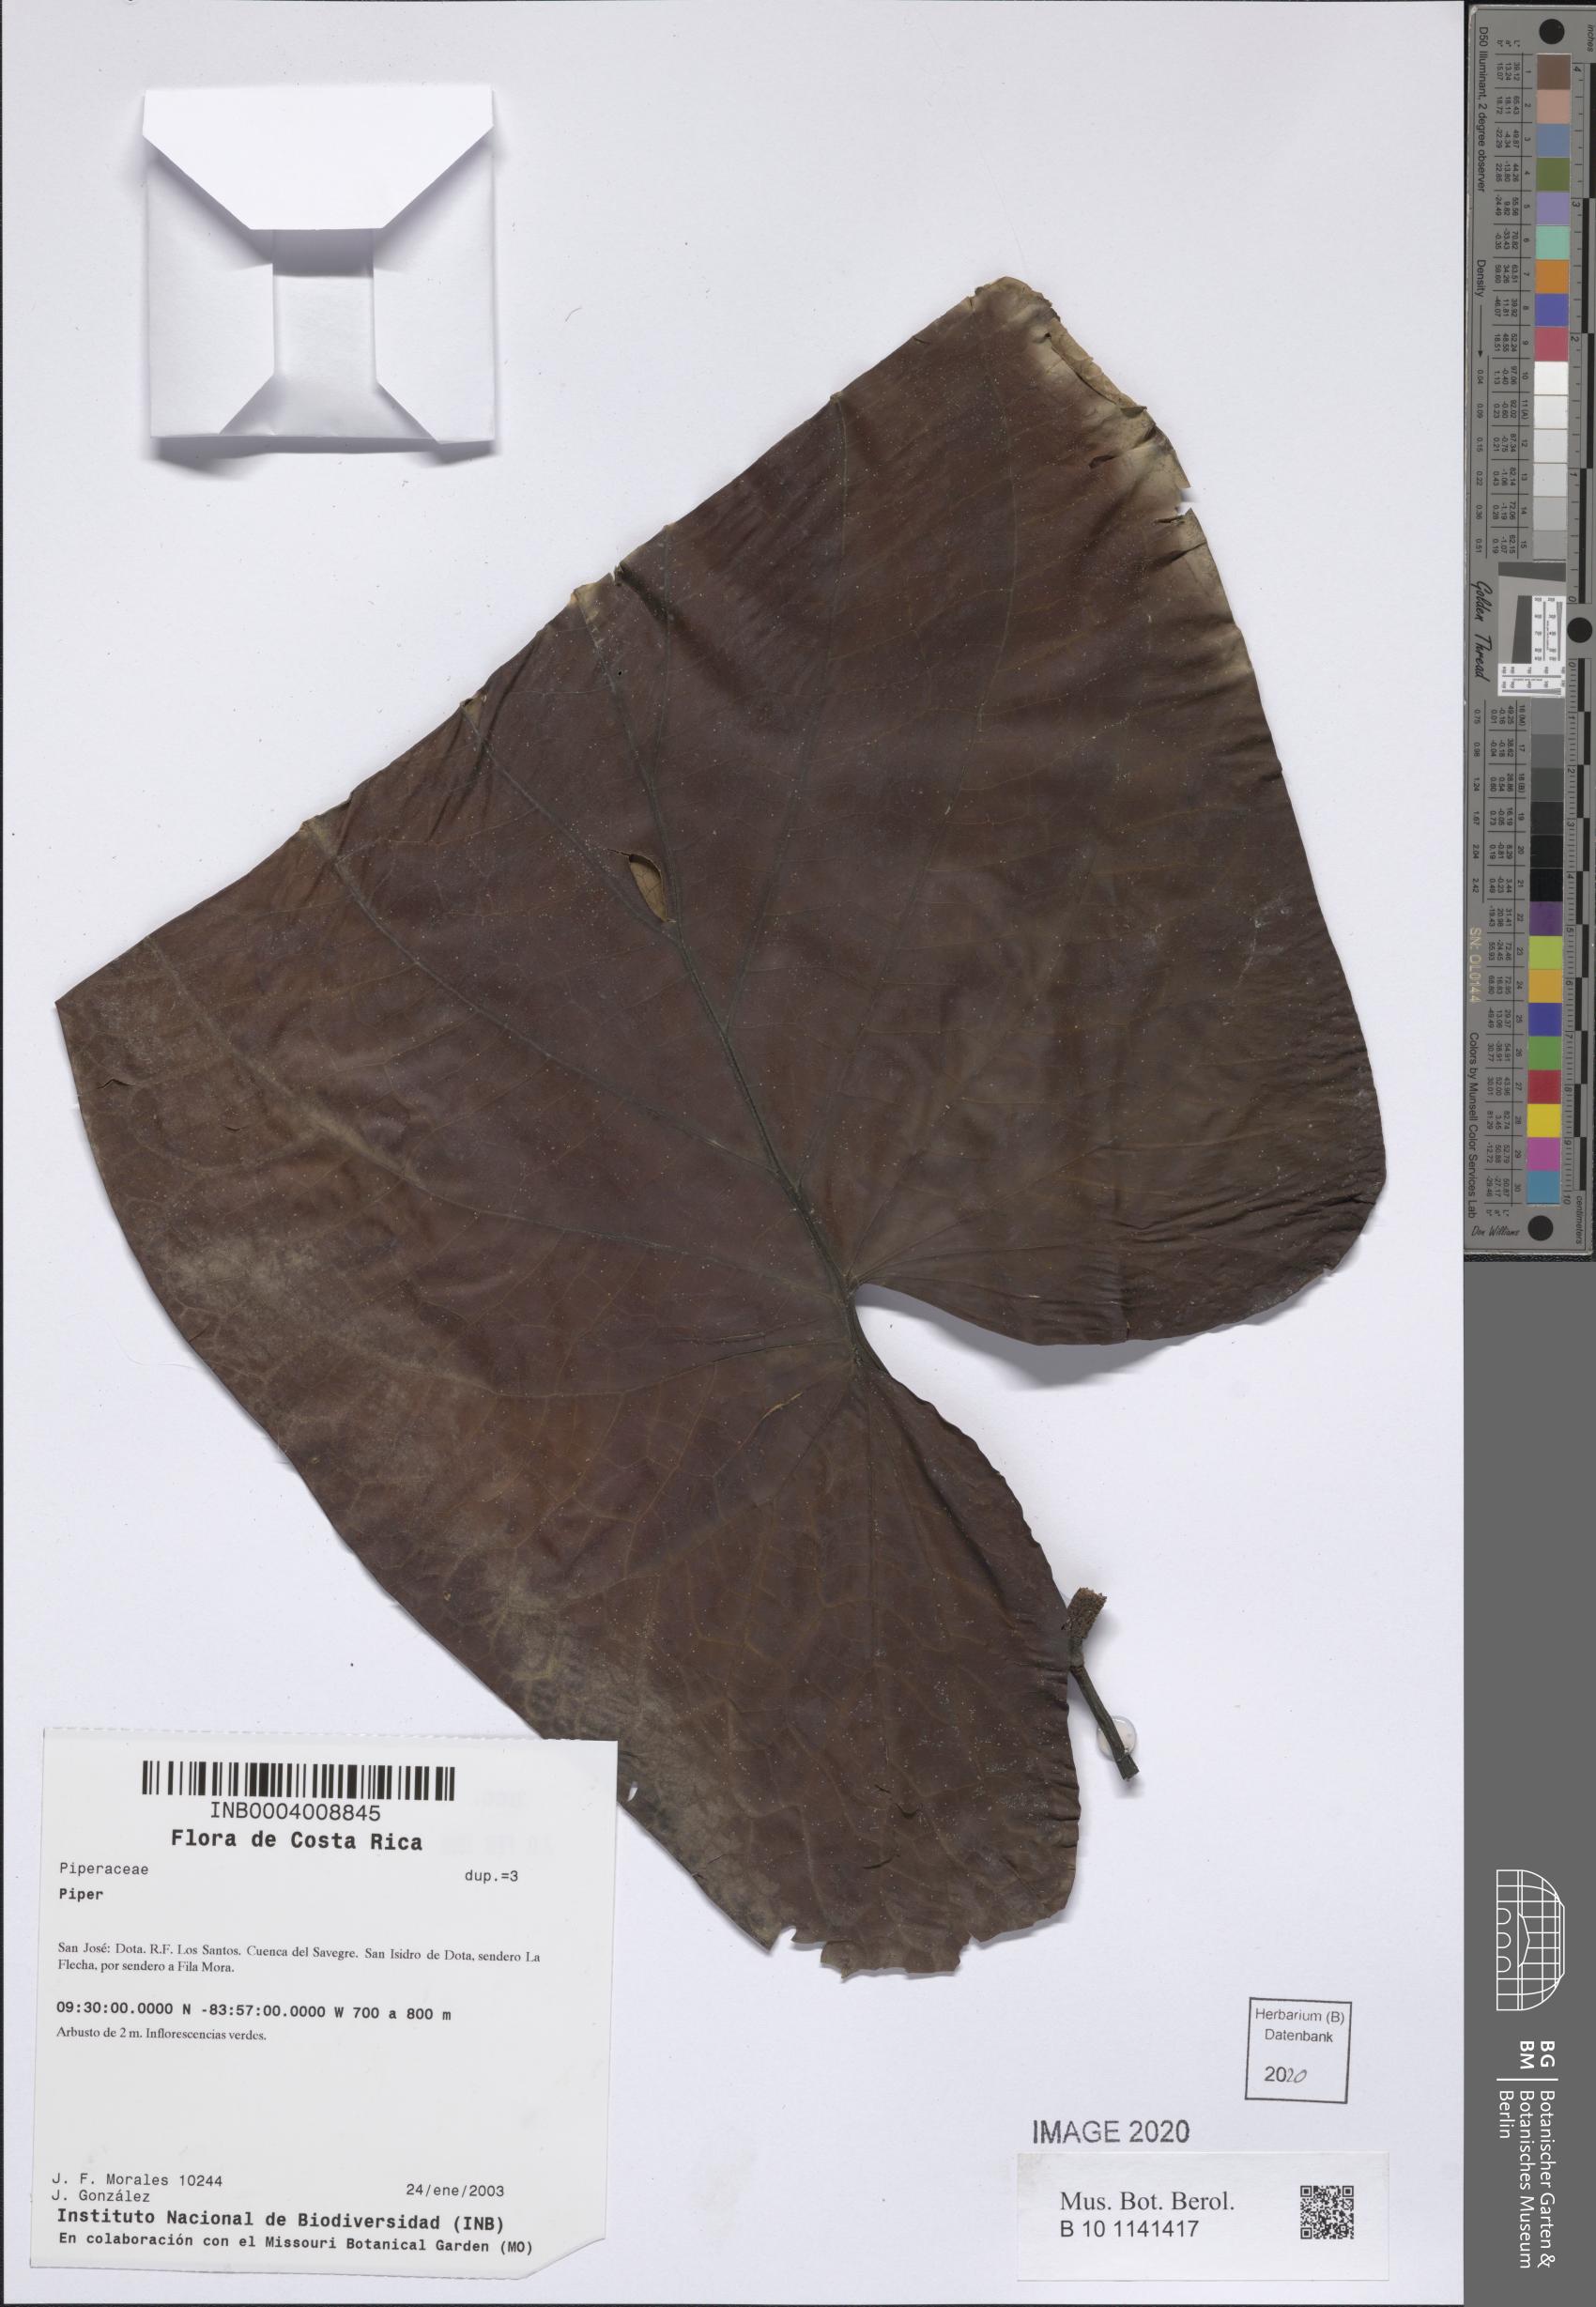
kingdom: Plantae
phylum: Tracheophyta
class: Magnoliopsida
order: Piperales
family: Piperaceae
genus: Piper
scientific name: Piper
